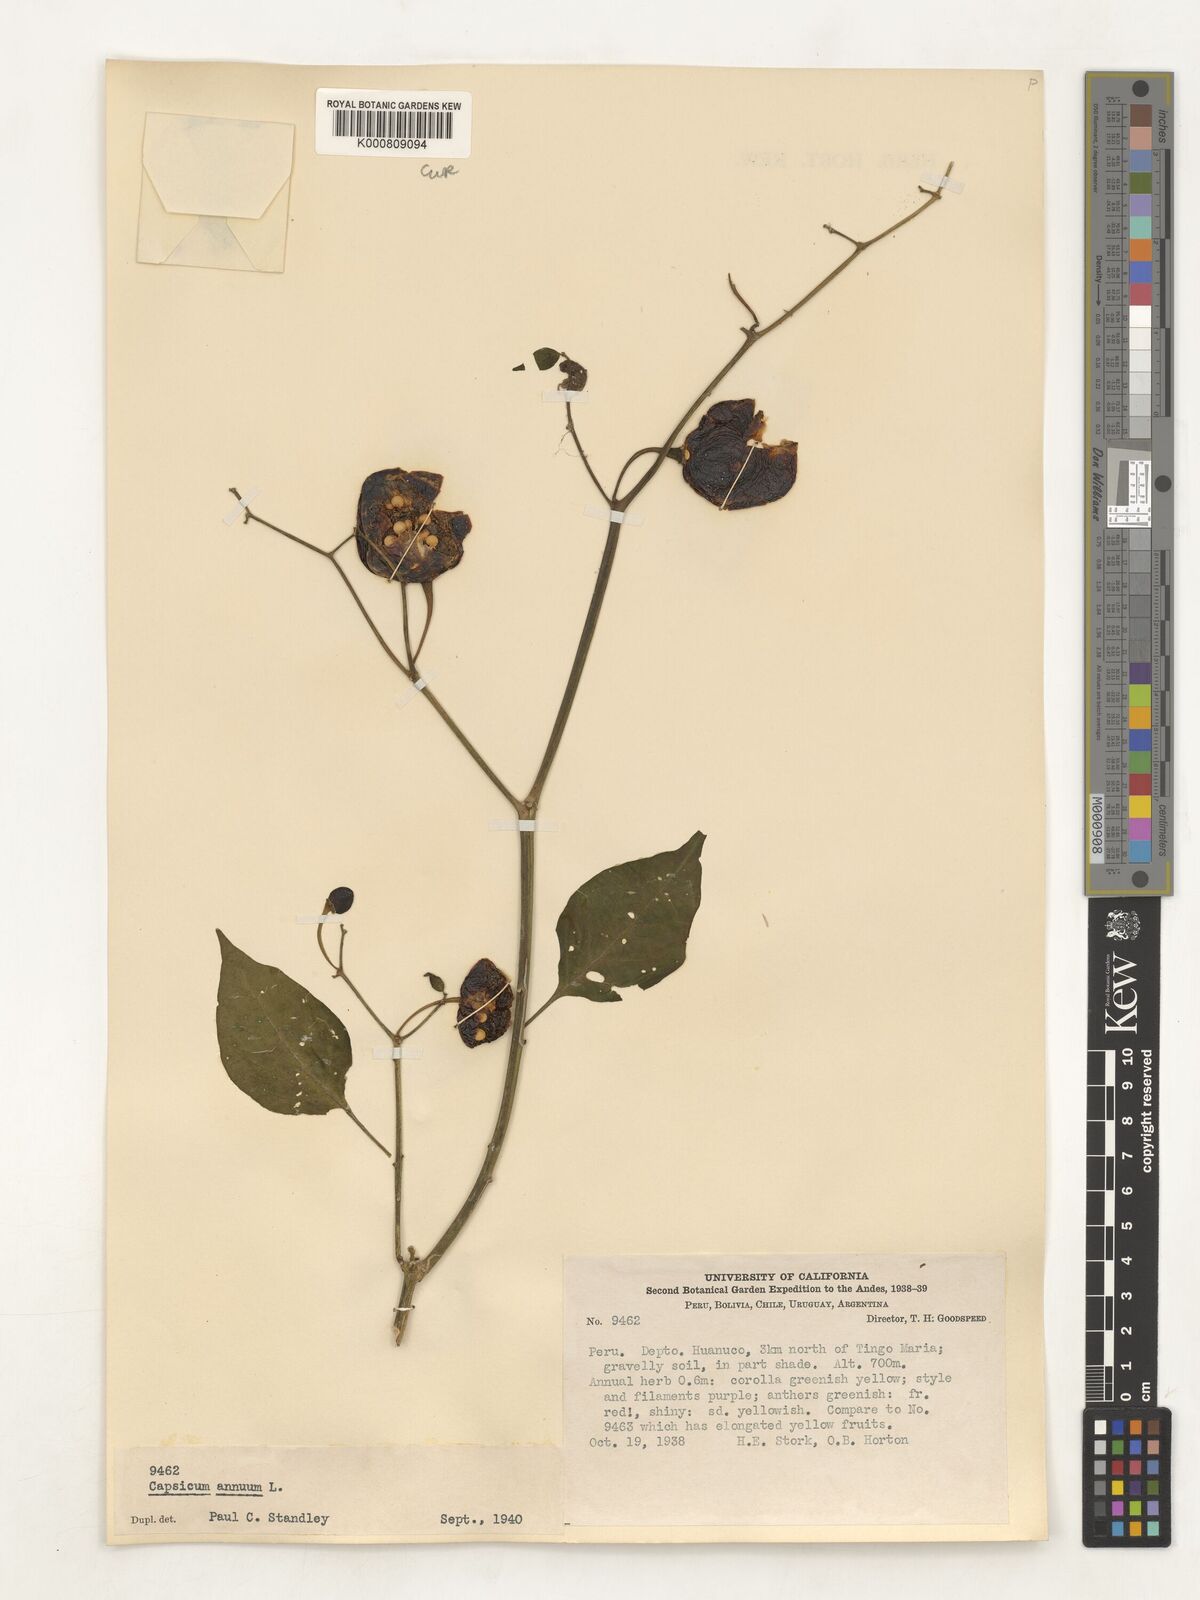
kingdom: Plantae
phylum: Tracheophyta
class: Magnoliopsida
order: Solanales
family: Solanaceae
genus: Capsicum
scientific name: Capsicum annuum
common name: Sweet pepper
